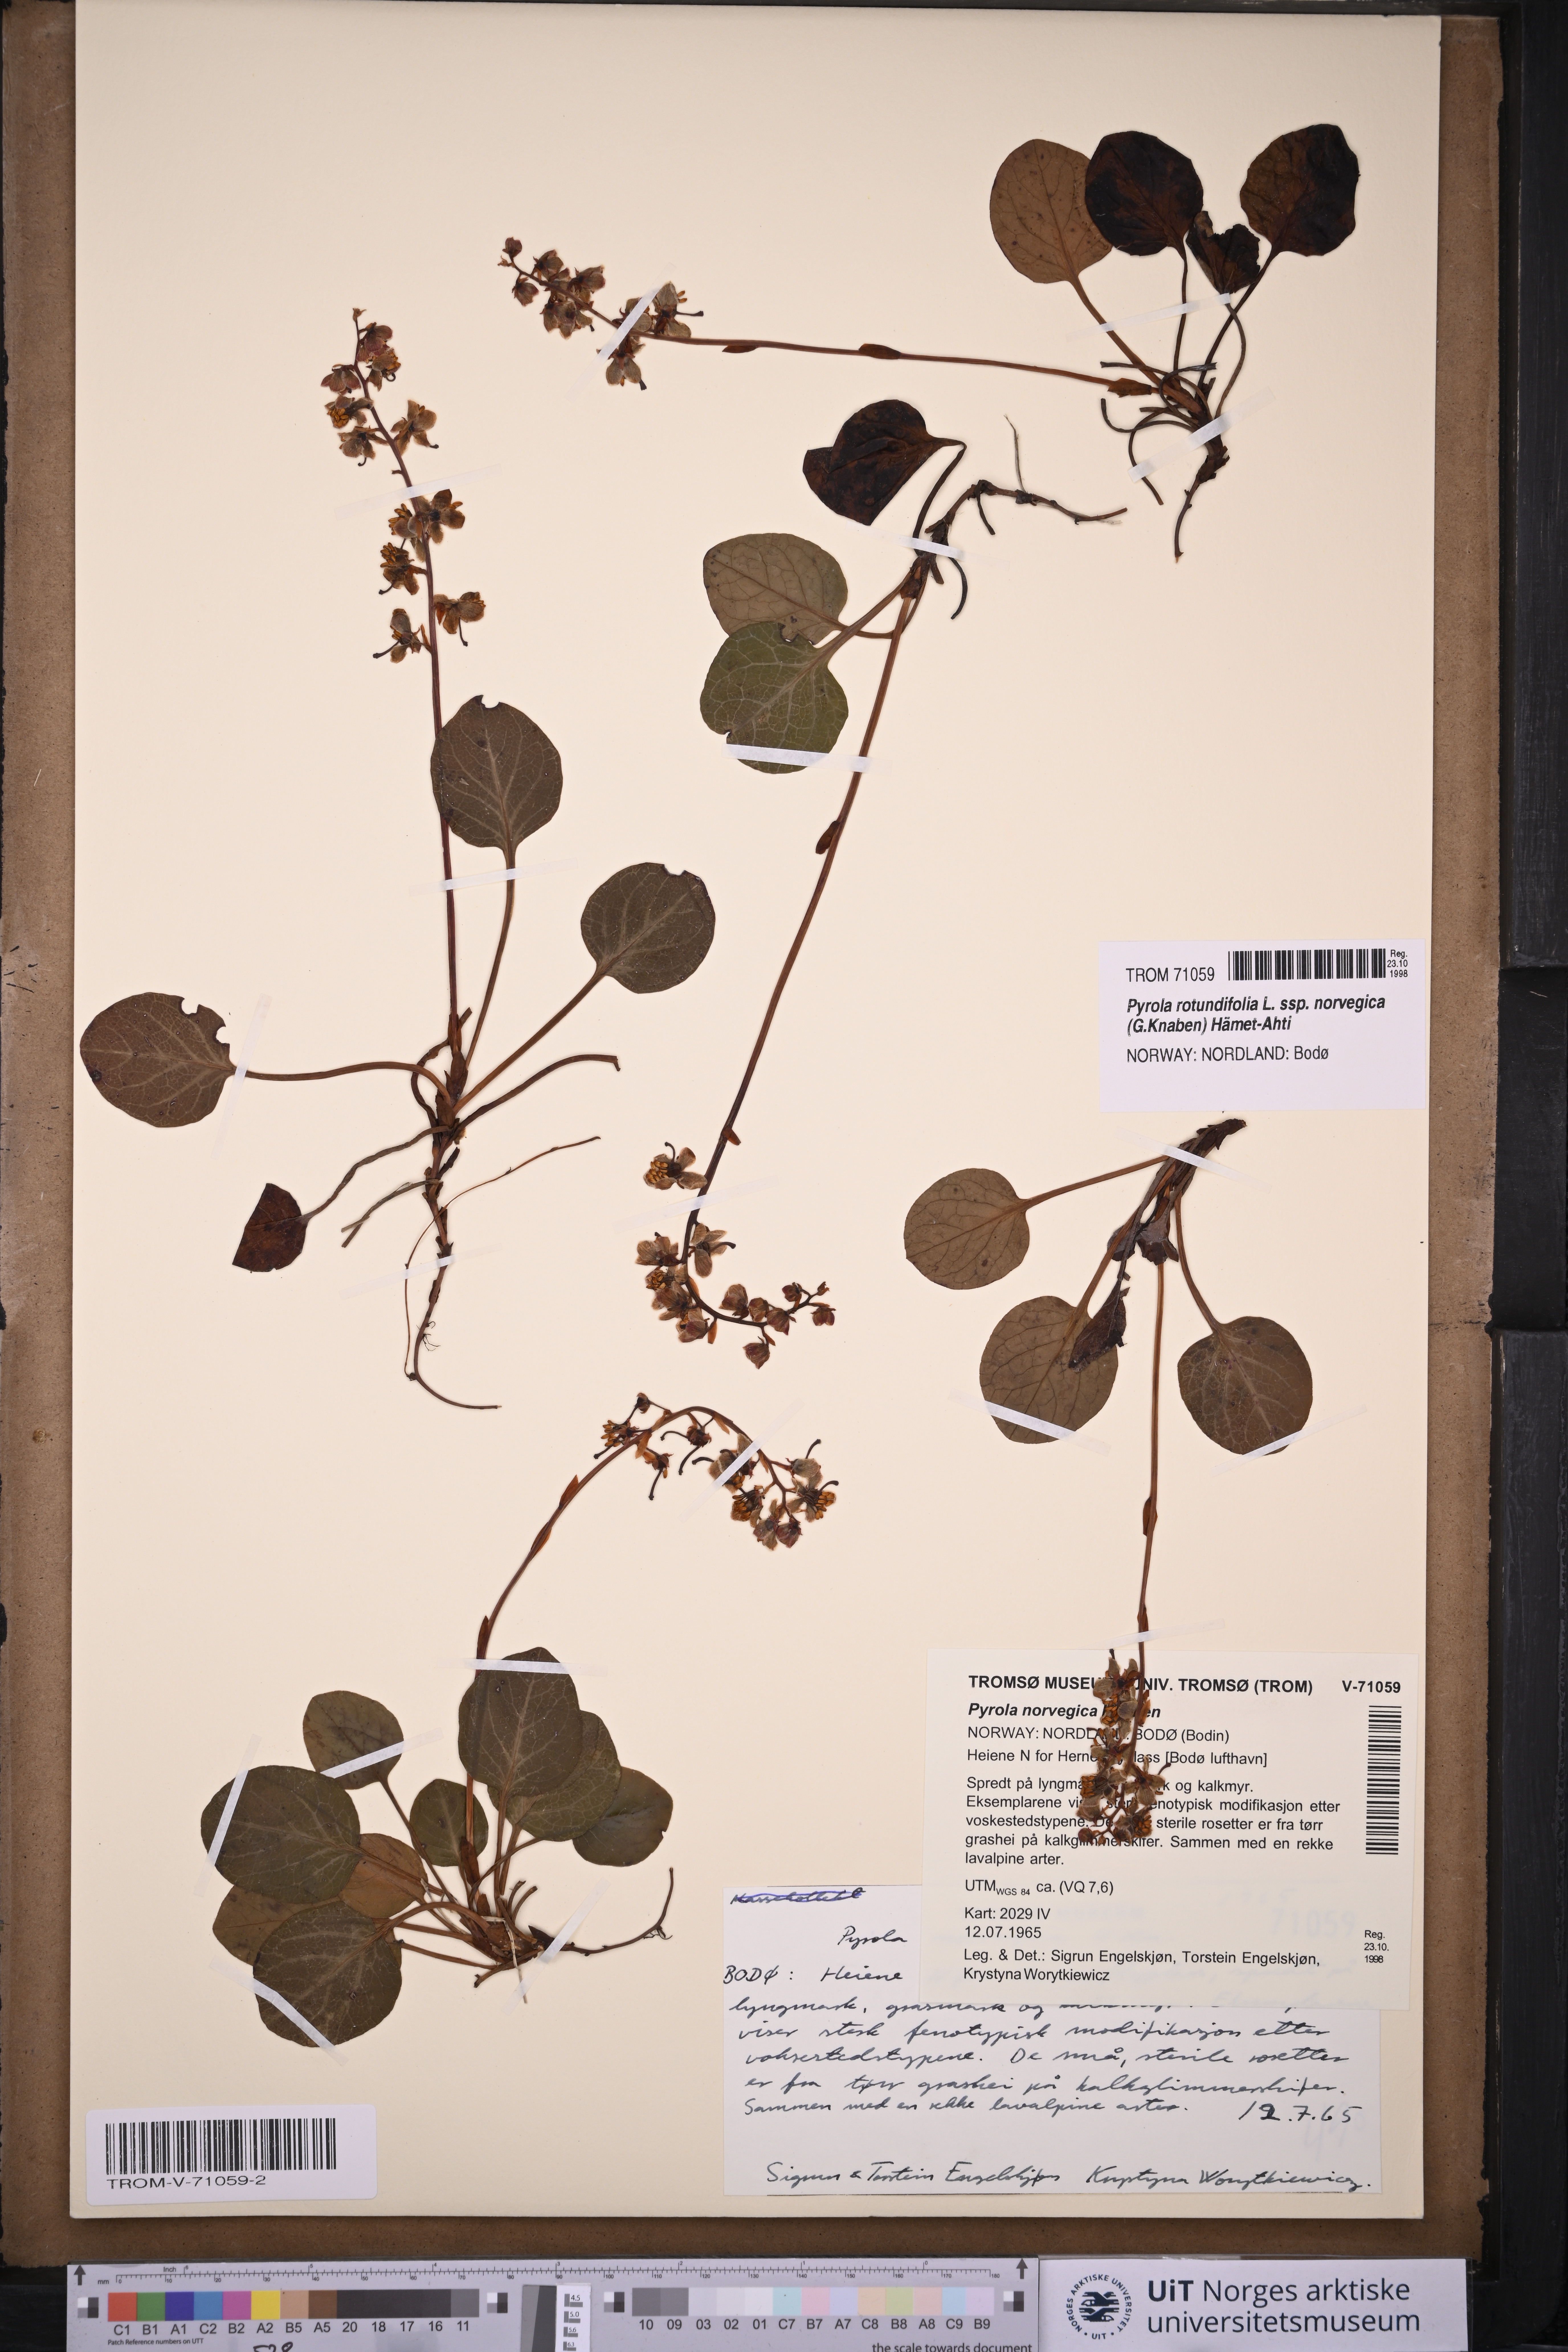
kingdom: Plantae
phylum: Tracheophyta
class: Magnoliopsida
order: Ericales
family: Ericaceae
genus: Pyrola
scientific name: Pyrola rotundifolia
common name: Round-leaved wintergreen
